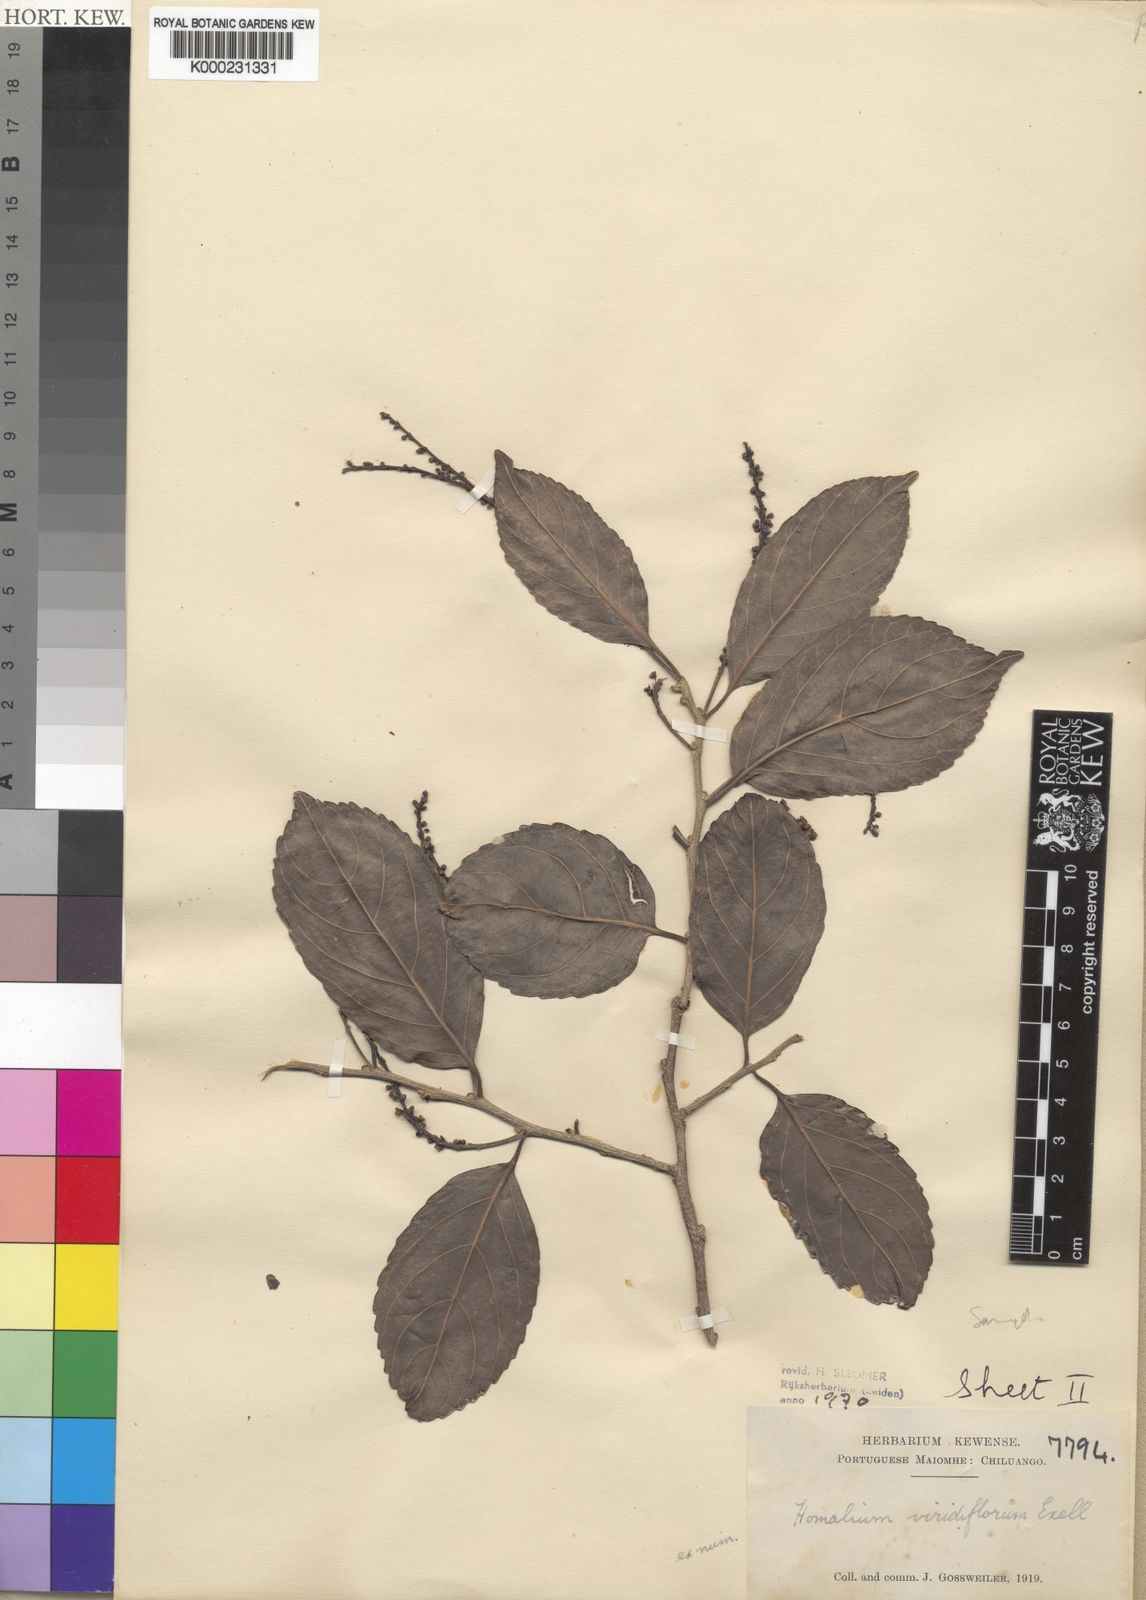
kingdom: Plantae
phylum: Tracheophyta
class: Magnoliopsida
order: Malpighiales
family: Salicaceae
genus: Homalium
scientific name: Homalium
